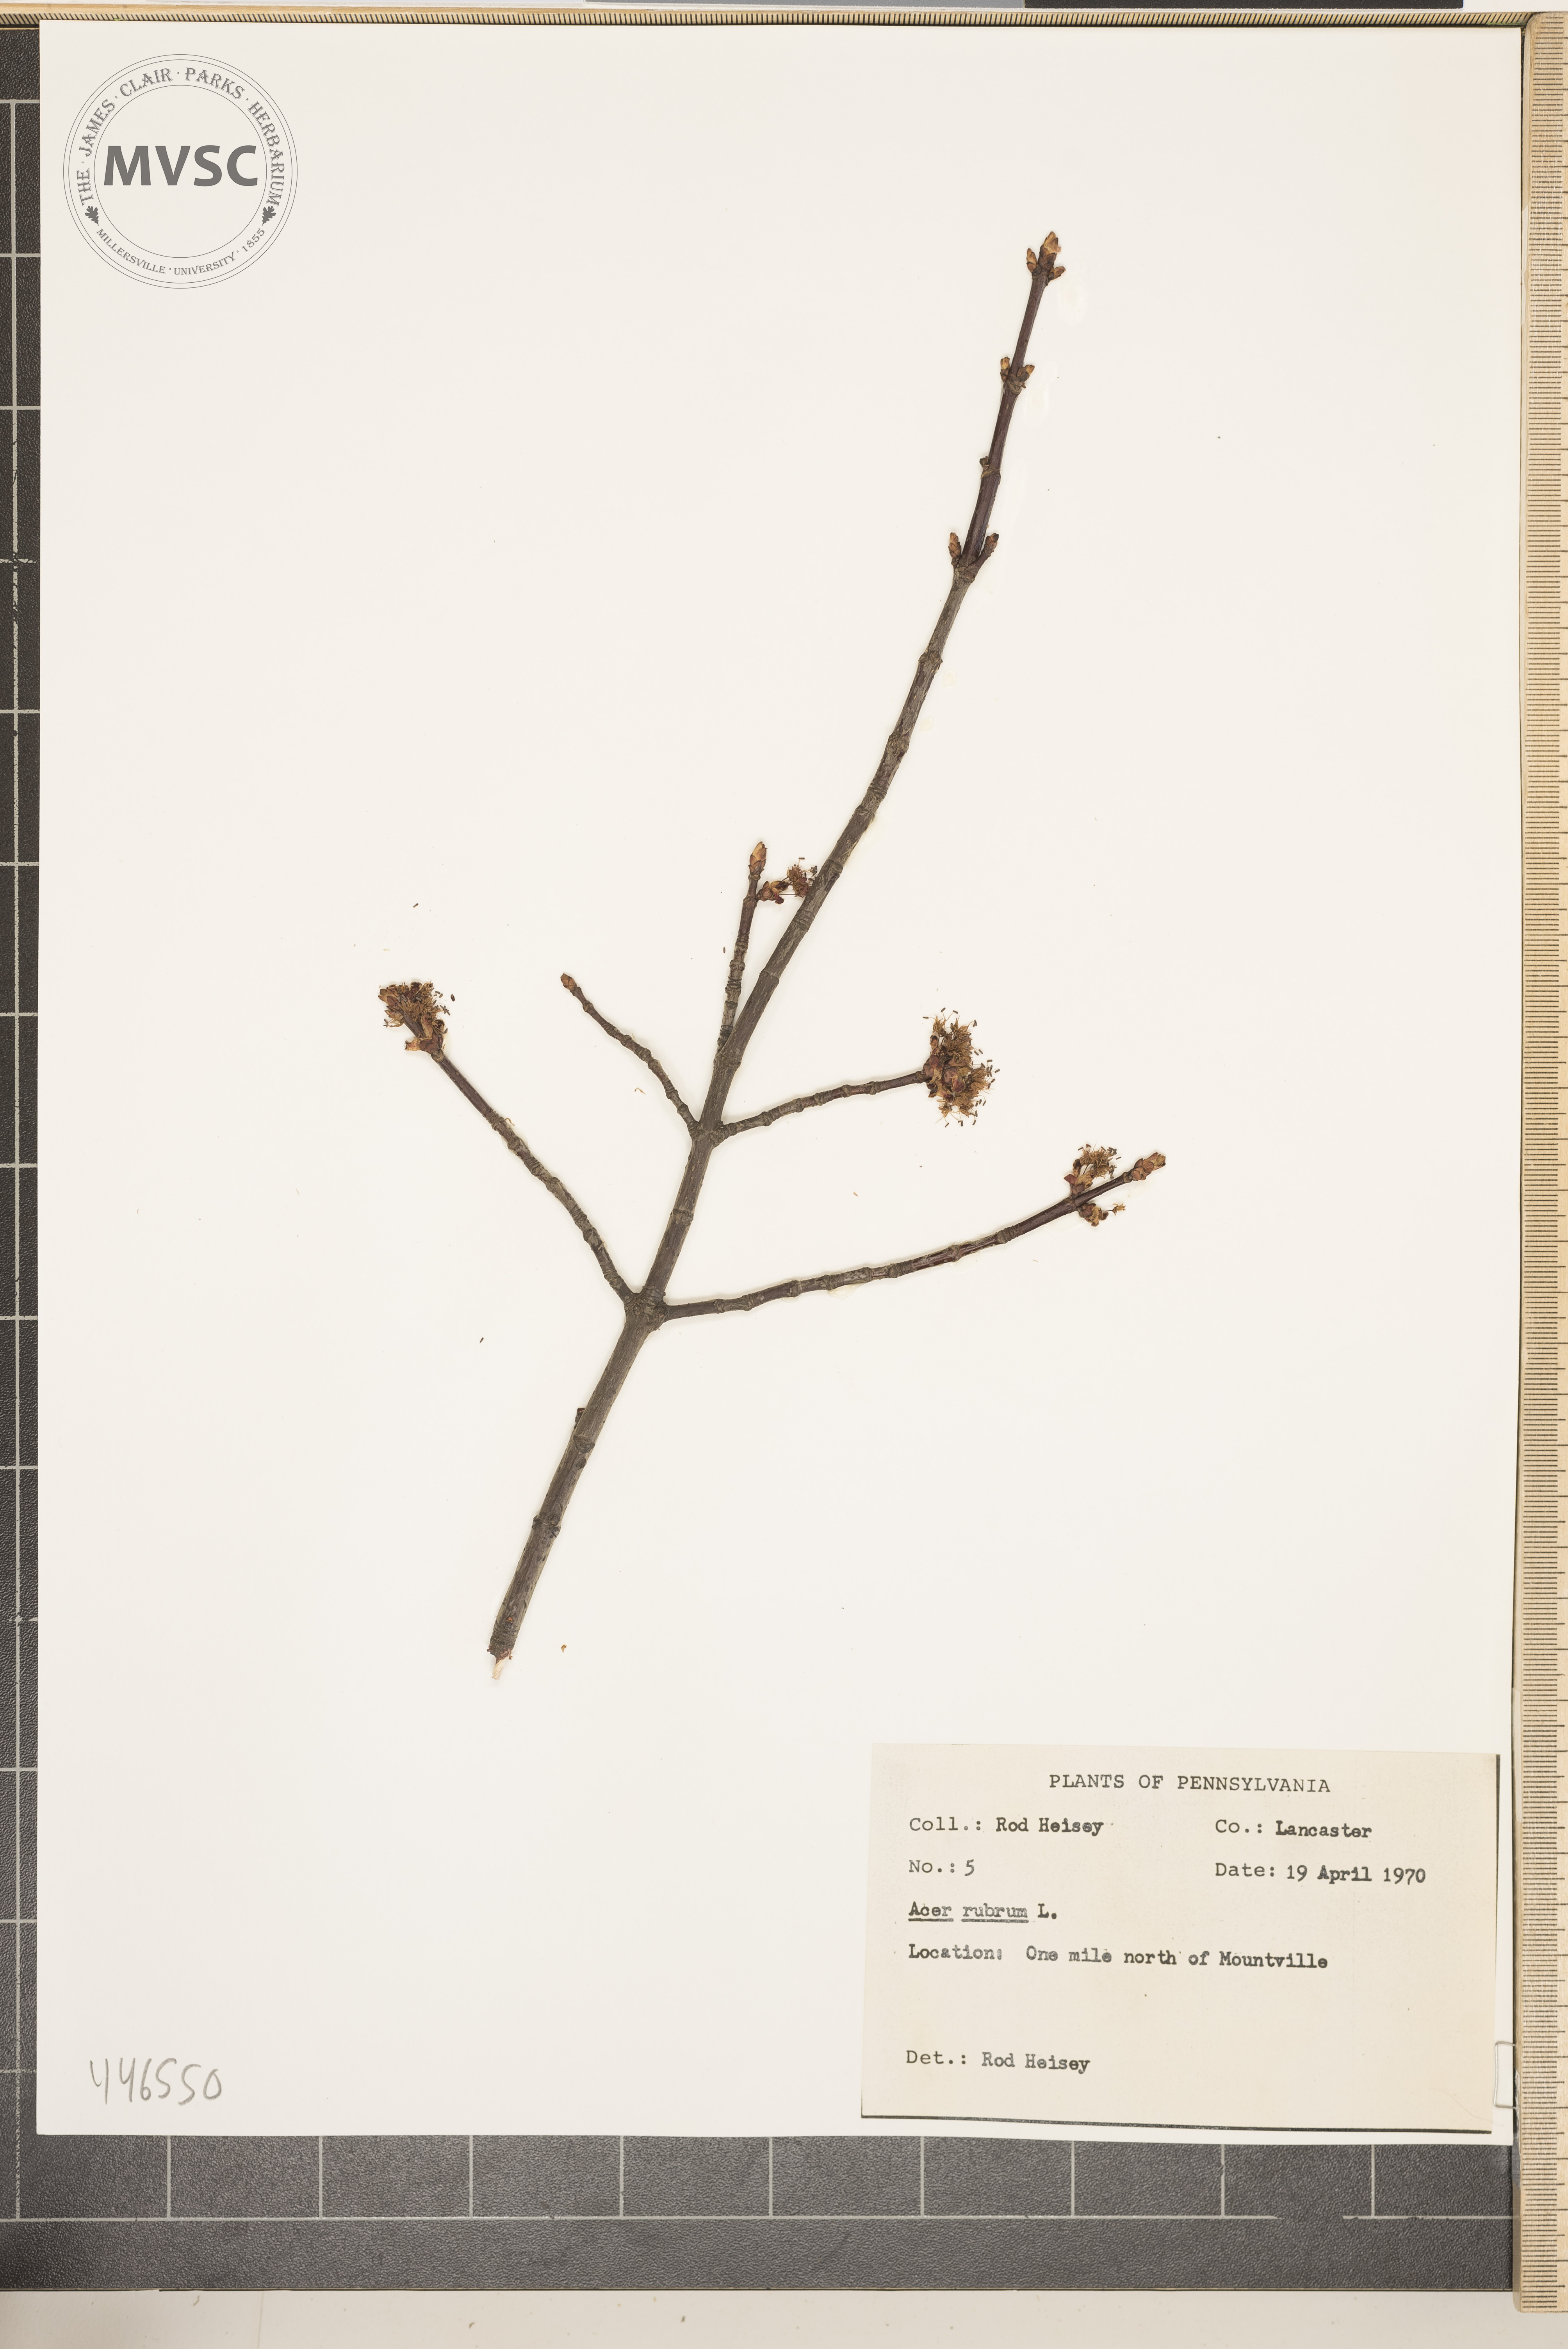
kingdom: Plantae
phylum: Tracheophyta
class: Magnoliopsida
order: Sapindales
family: Sapindaceae
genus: Acer
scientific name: Acer rubrum
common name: Red maple
